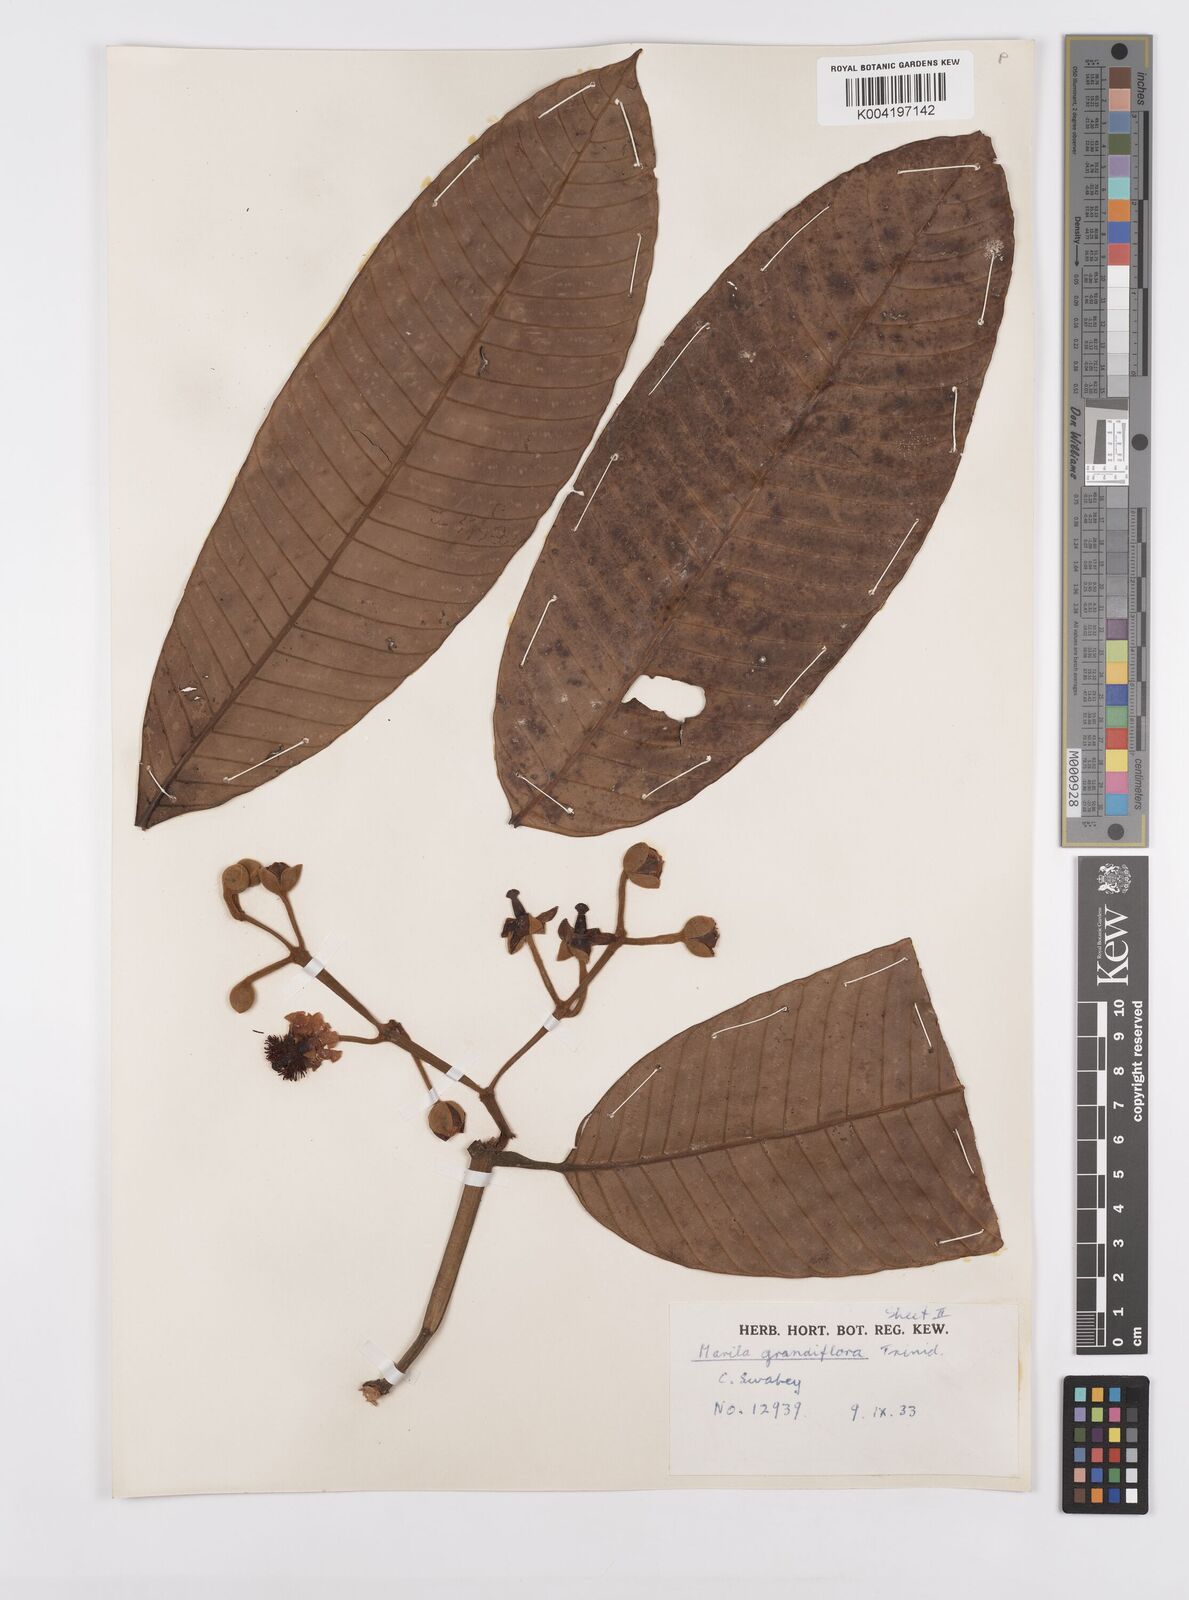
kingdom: Plantae
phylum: Tracheophyta
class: Magnoliopsida
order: Malpighiales
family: Calophyllaceae
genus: Marila
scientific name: Marila grandiflora
